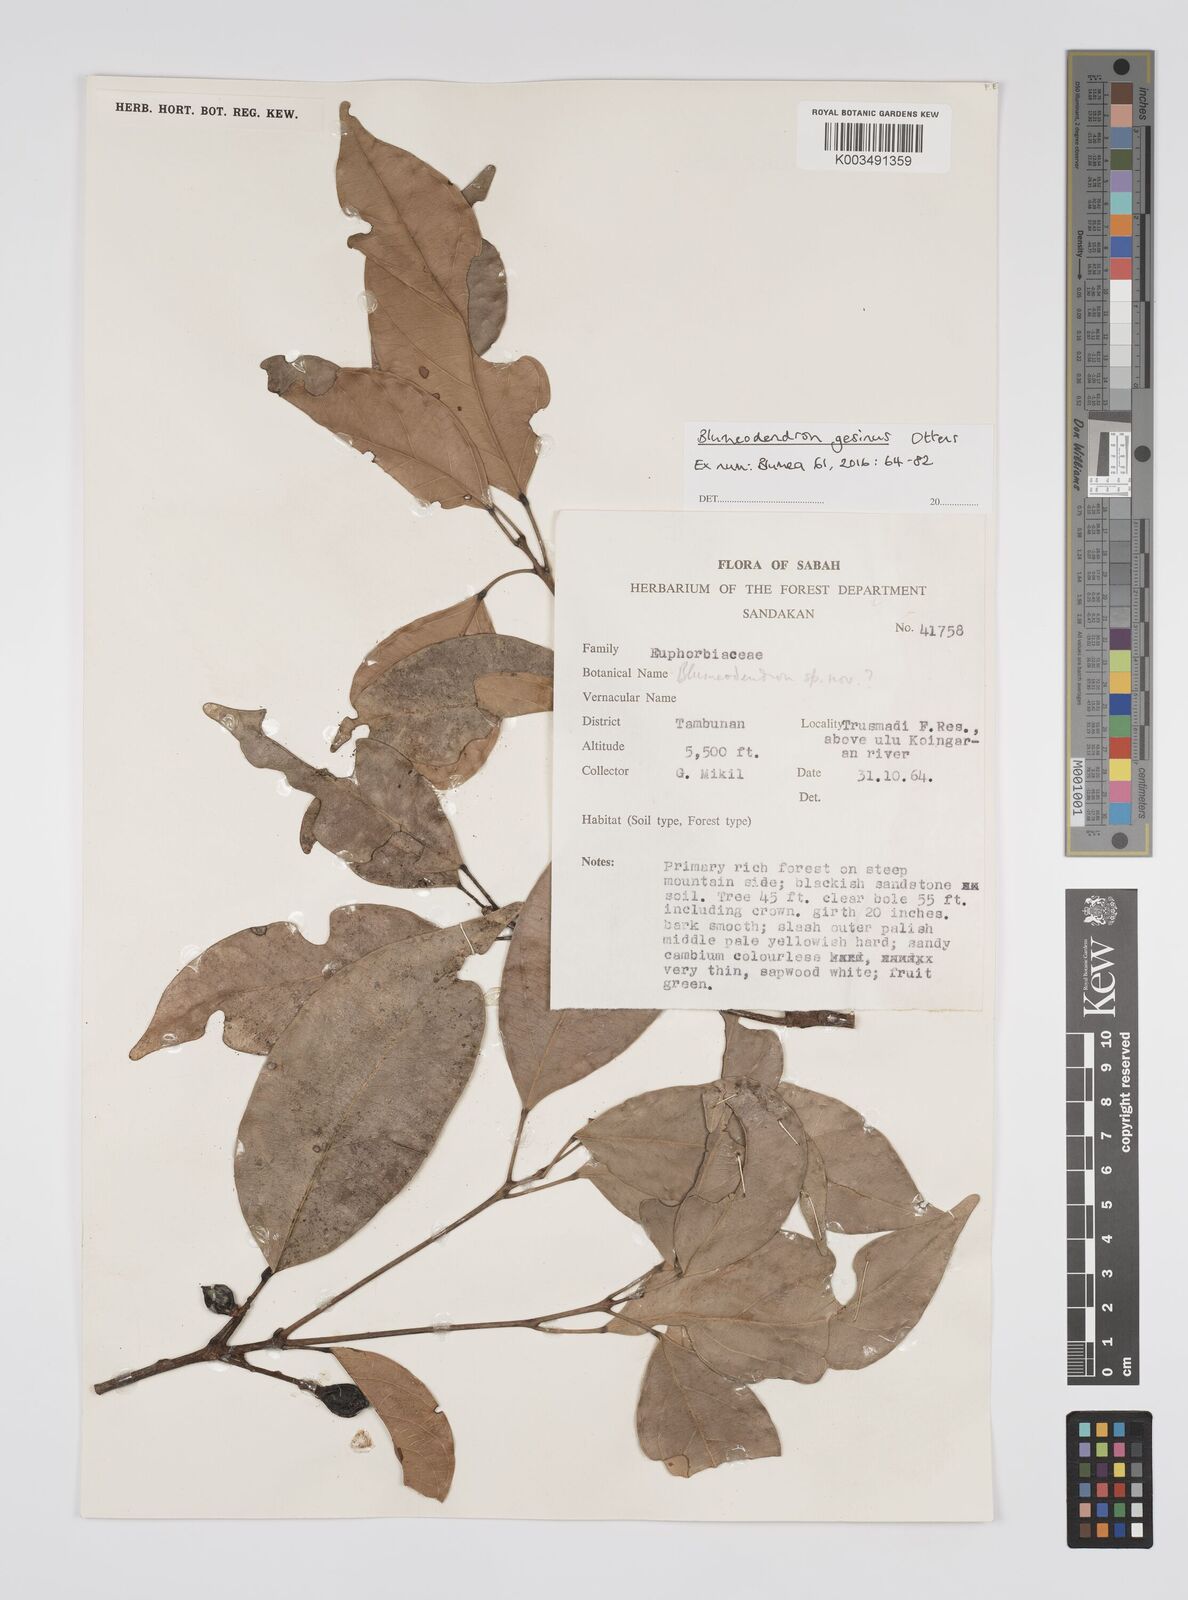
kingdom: Plantae
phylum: Tracheophyta
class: Magnoliopsida
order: Malpighiales
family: Euphorbiaceae
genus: Blumeodendron
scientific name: Blumeodendron gesinus
